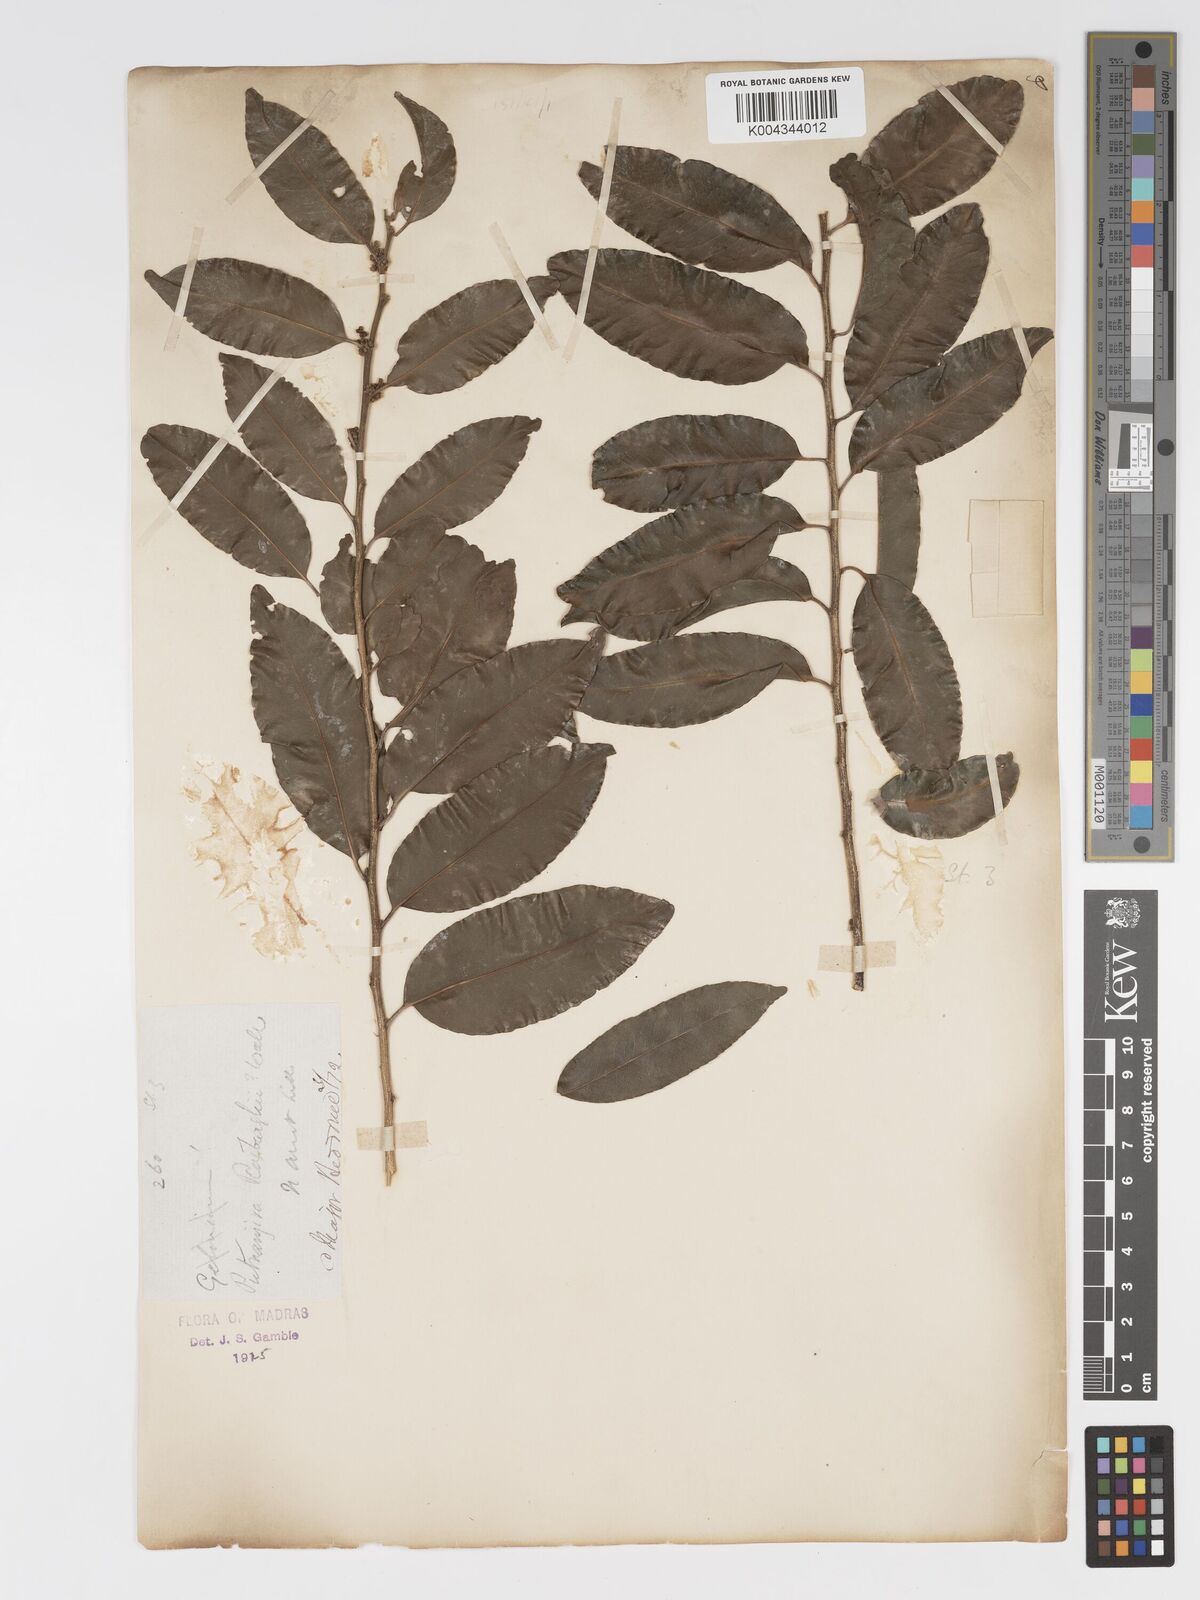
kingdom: Plantae
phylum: Tracheophyta
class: Magnoliopsida
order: Malpighiales
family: Putranjivaceae
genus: Putranjiva
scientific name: Putranjiva roxburghii
